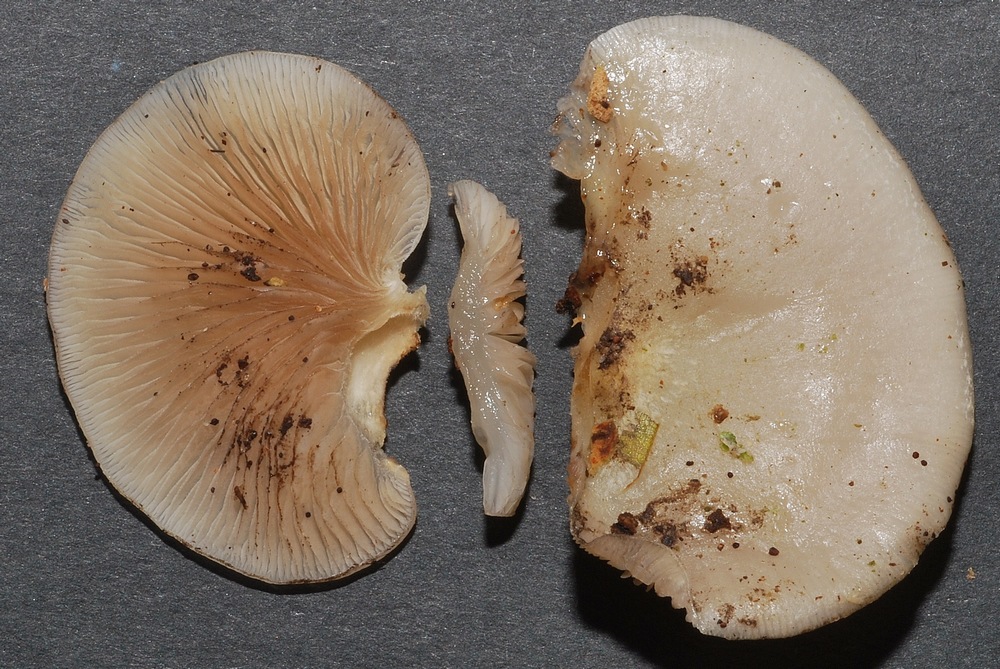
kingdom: Fungi
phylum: Basidiomycota
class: Agaricomycetes
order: Agaricales
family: Crepidotaceae
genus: Crepidotus
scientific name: Crepidotus mollis
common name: blød muslingesvamp
